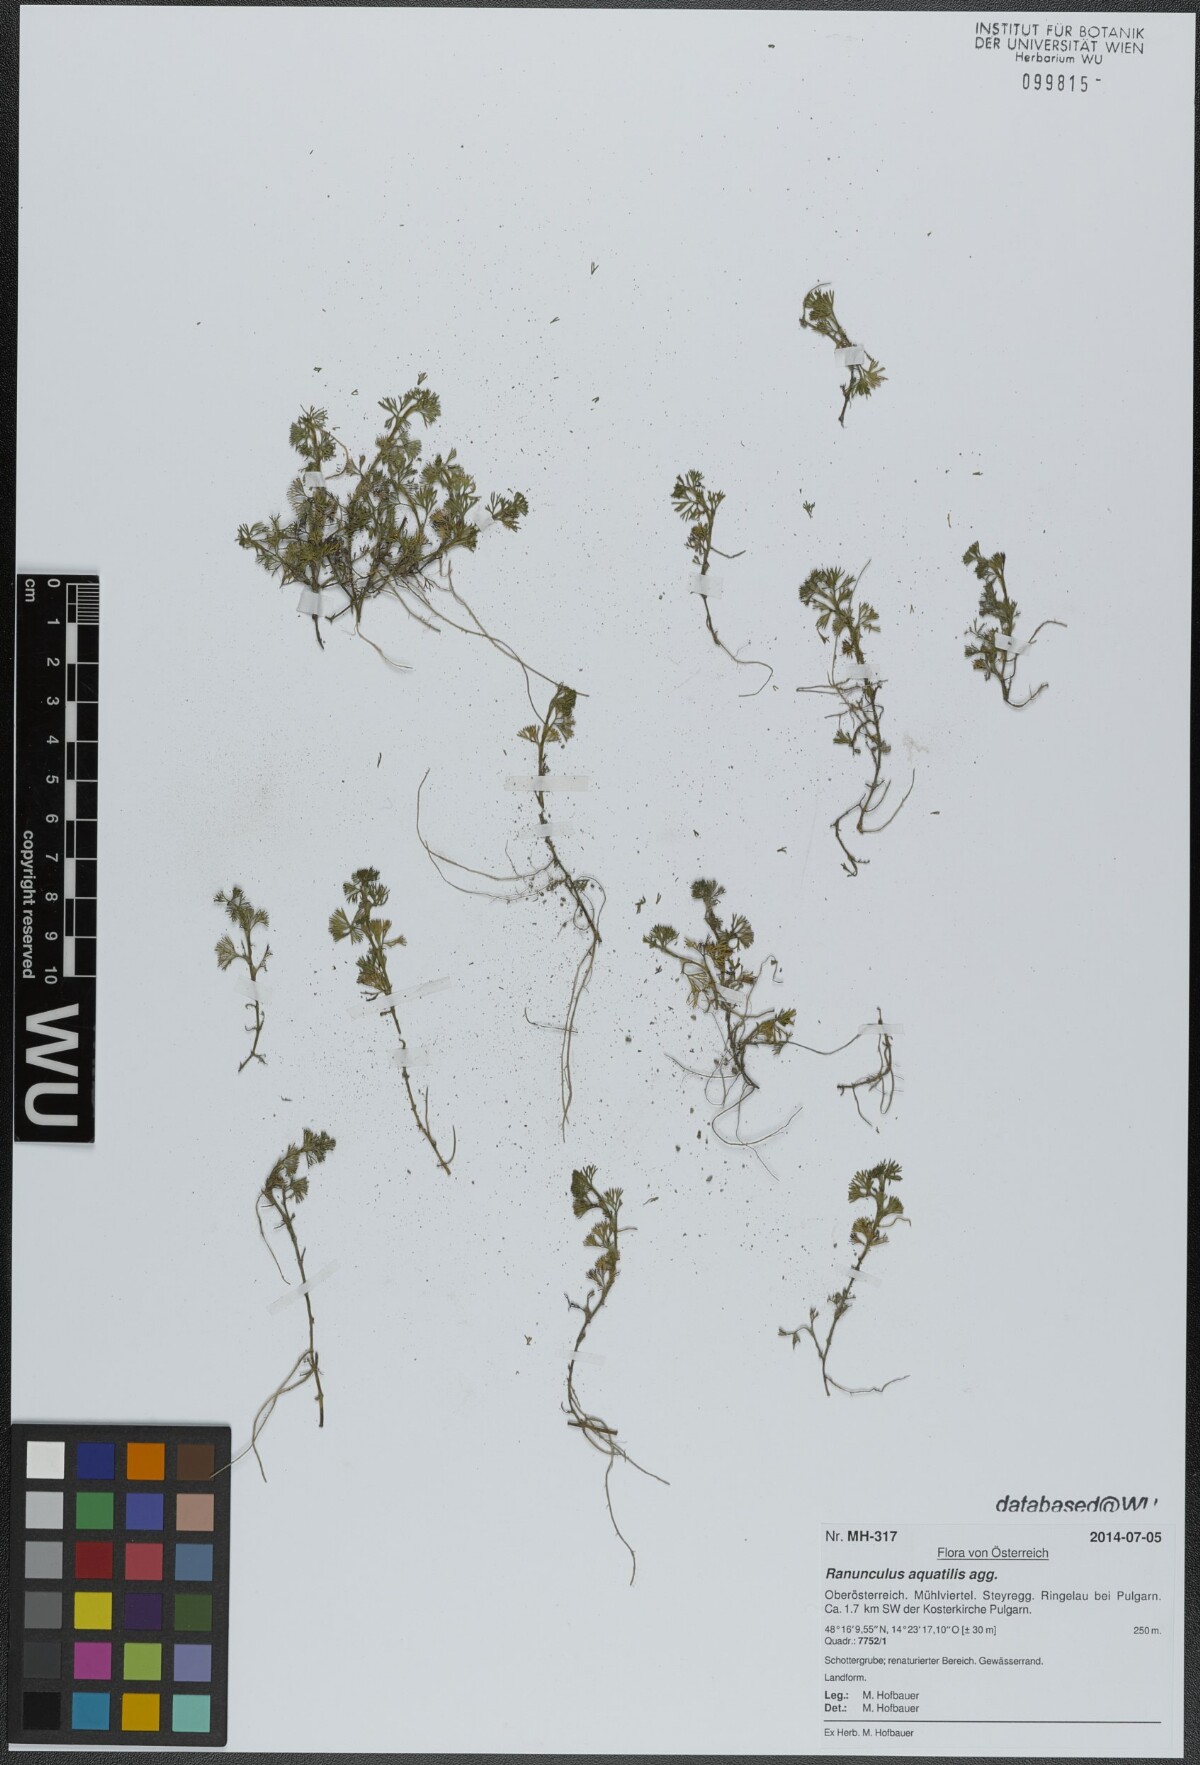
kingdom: Plantae
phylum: Tracheophyta
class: Magnoliopsida
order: Ranunculales
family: Ranunculaceae
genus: Ranunculus
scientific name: Ranunculus aquatilis
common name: Common water-crowfoot
